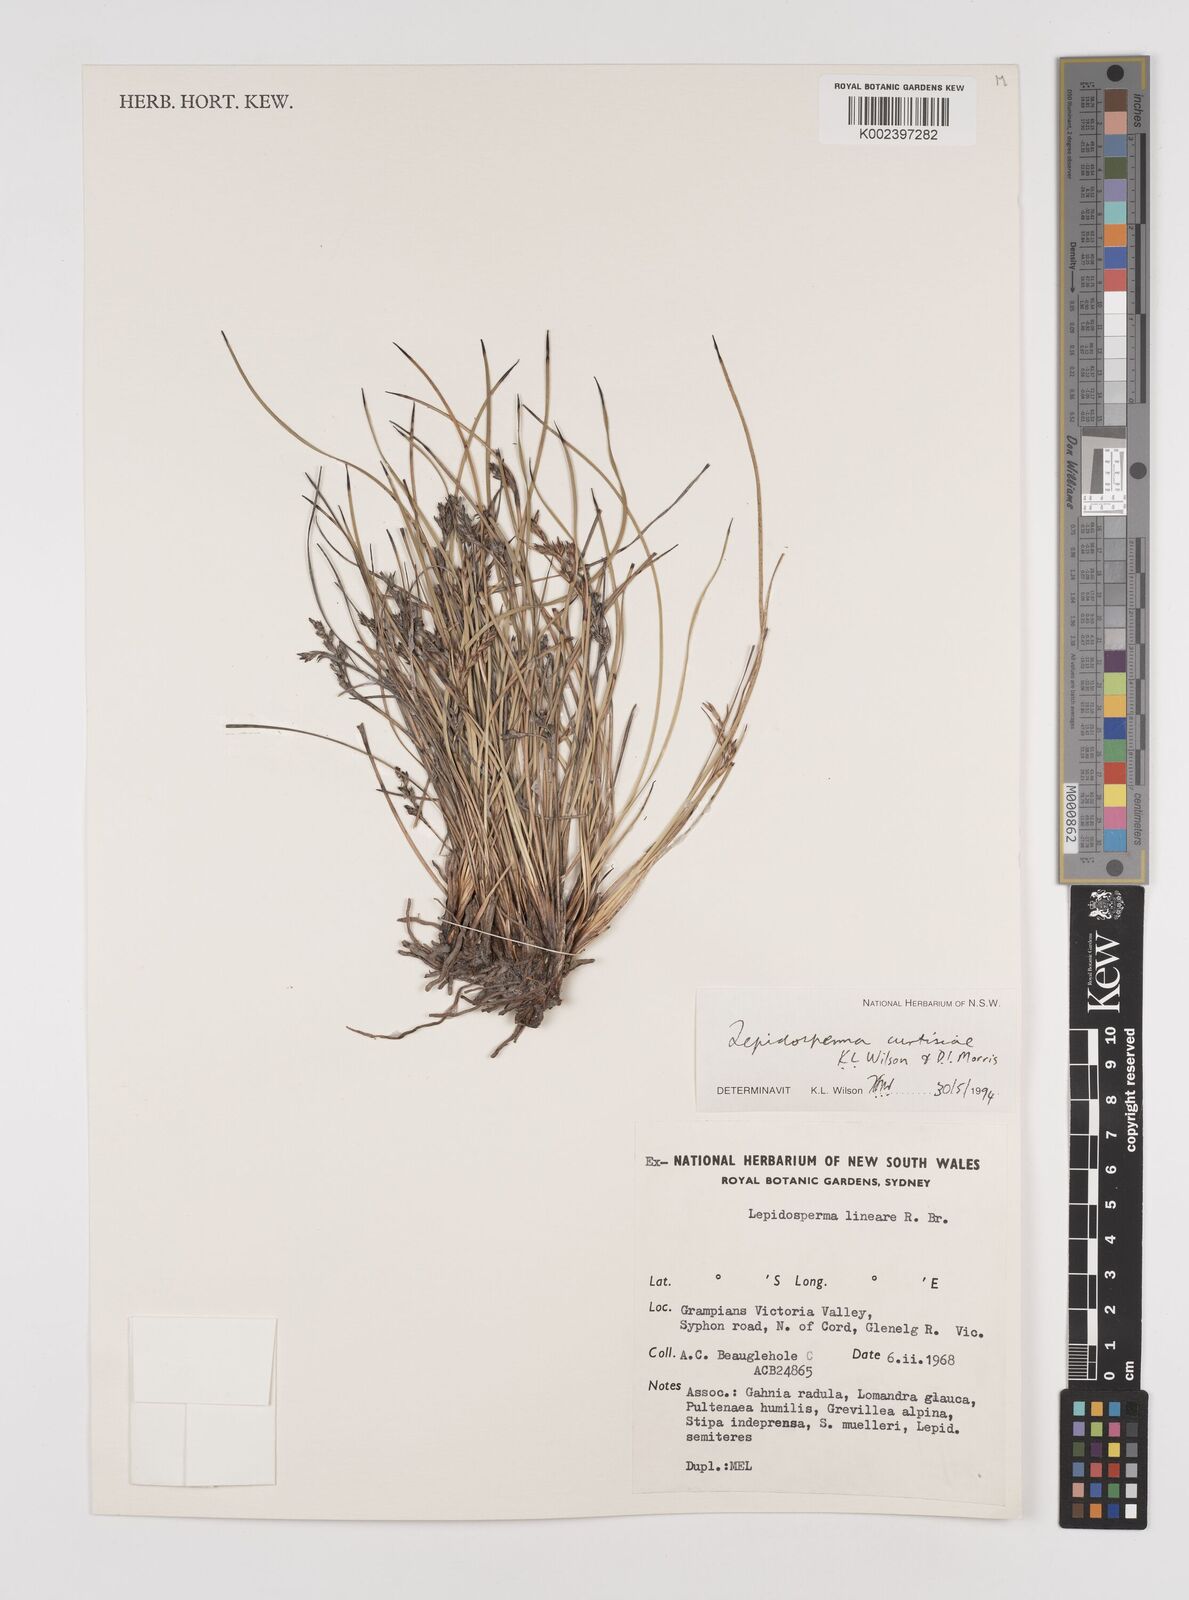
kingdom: Plantae
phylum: Tracheophyta
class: Liliopsida
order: Poales
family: Cyperaceae
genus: Lepidosperma
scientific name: Lepidosperma curtisiae
